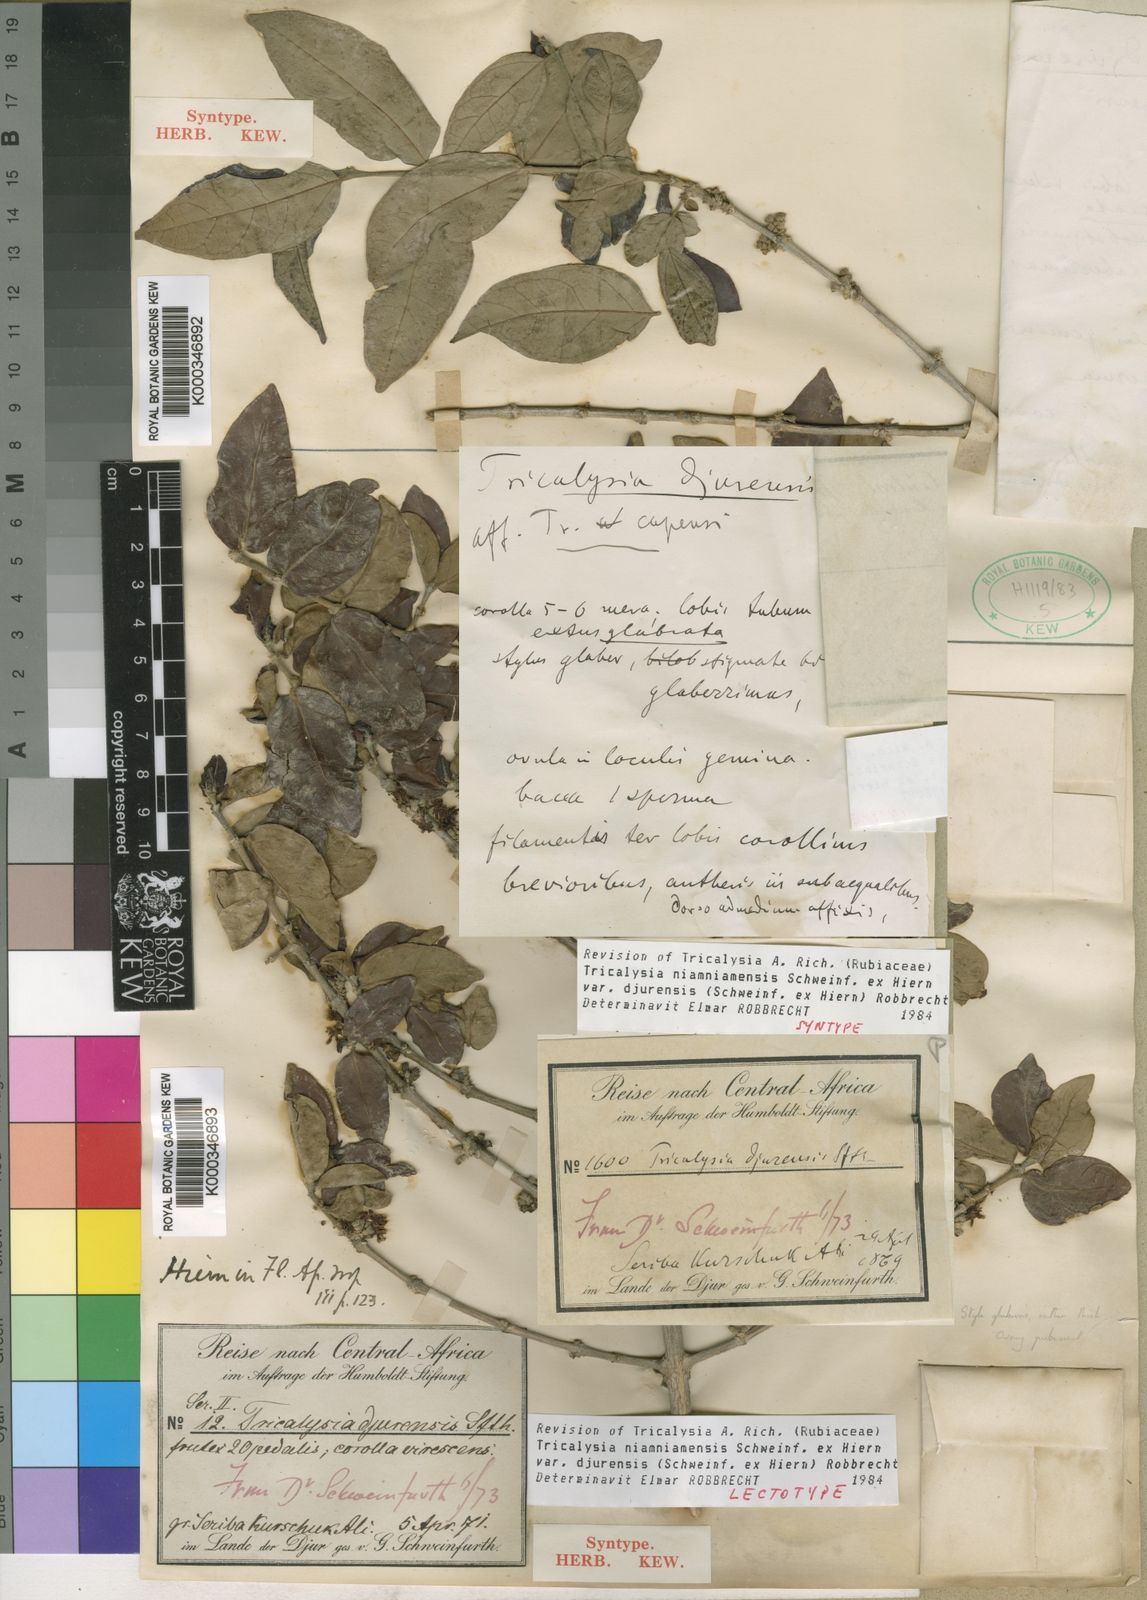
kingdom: Plantae
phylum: Tracheophyta
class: Magnoliopsida
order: Gentianales
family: Rubiaceae
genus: Tricalysia
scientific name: Tricalysia niamniamensis
